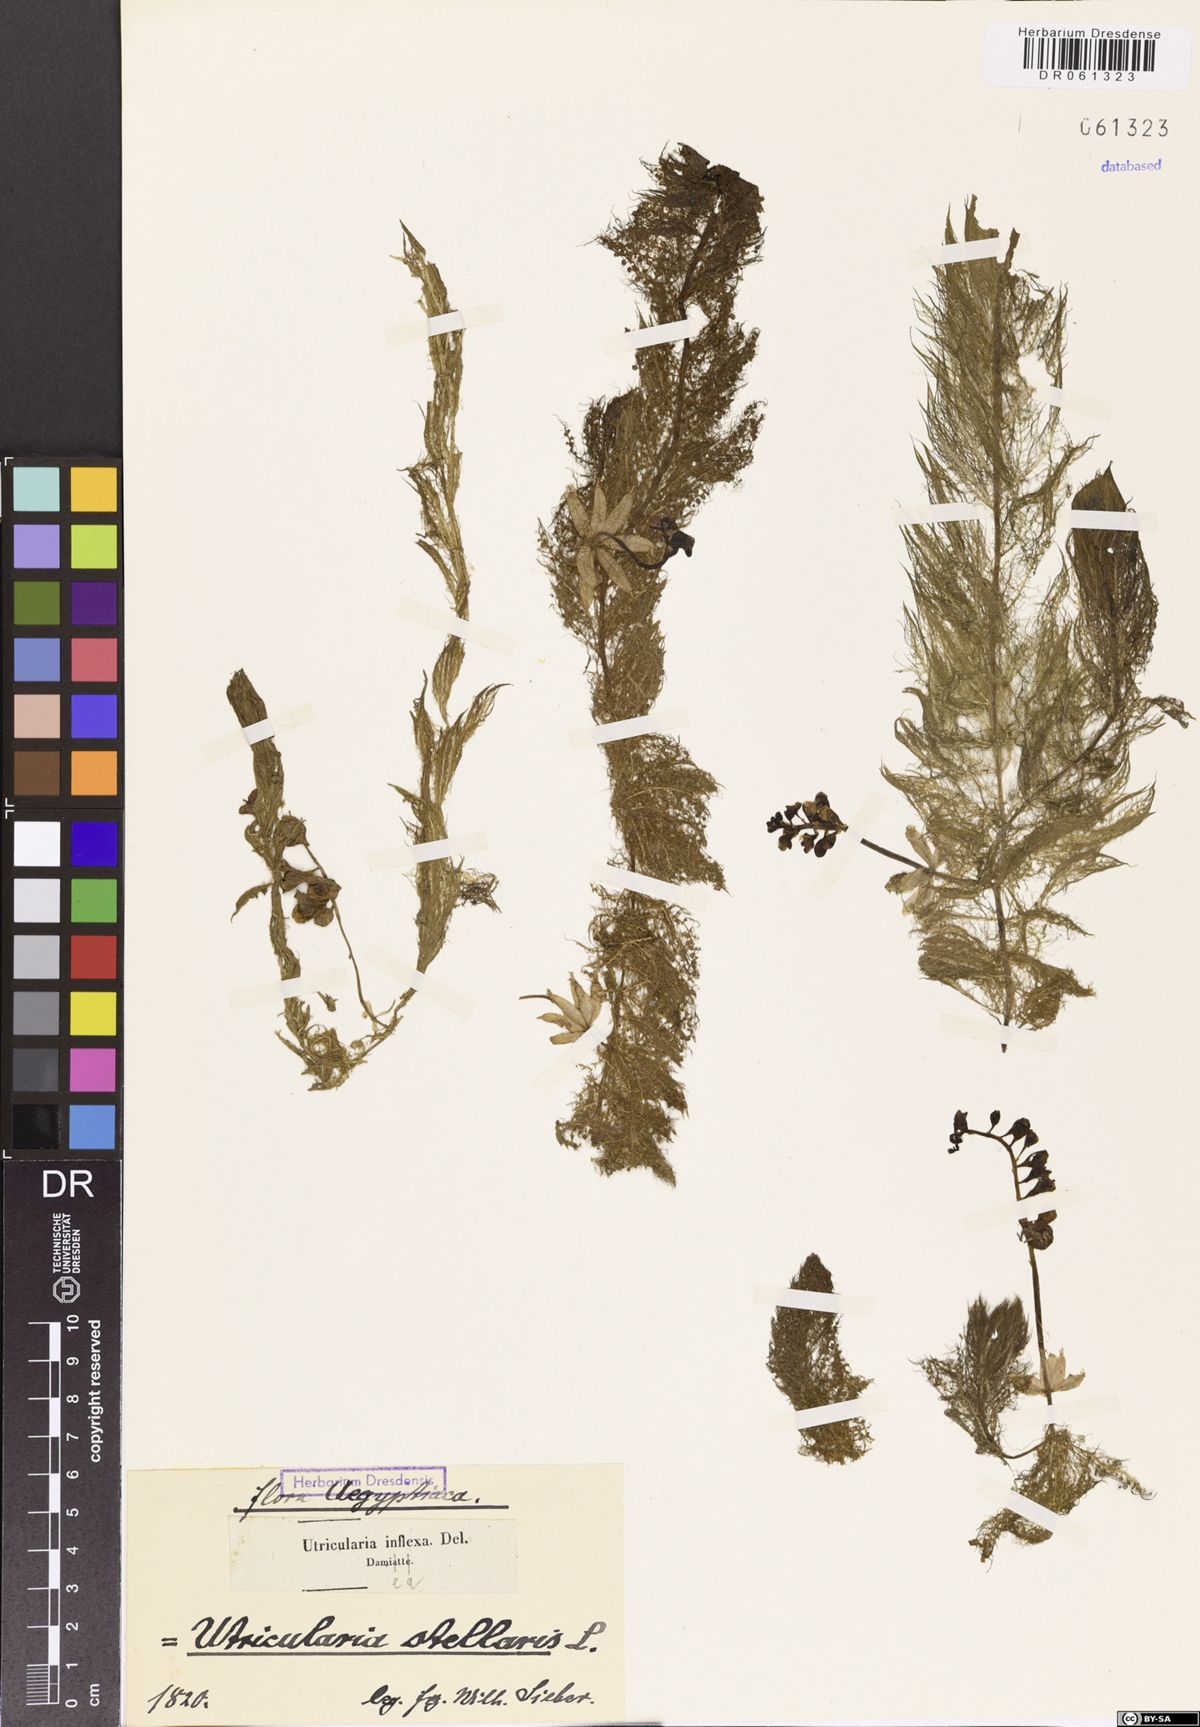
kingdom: Plantae
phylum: Tracheophyta
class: Magnoliopsida
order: Lamiales
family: Lentibulariaceae
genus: Utricularia
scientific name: Utricularia stellaris
